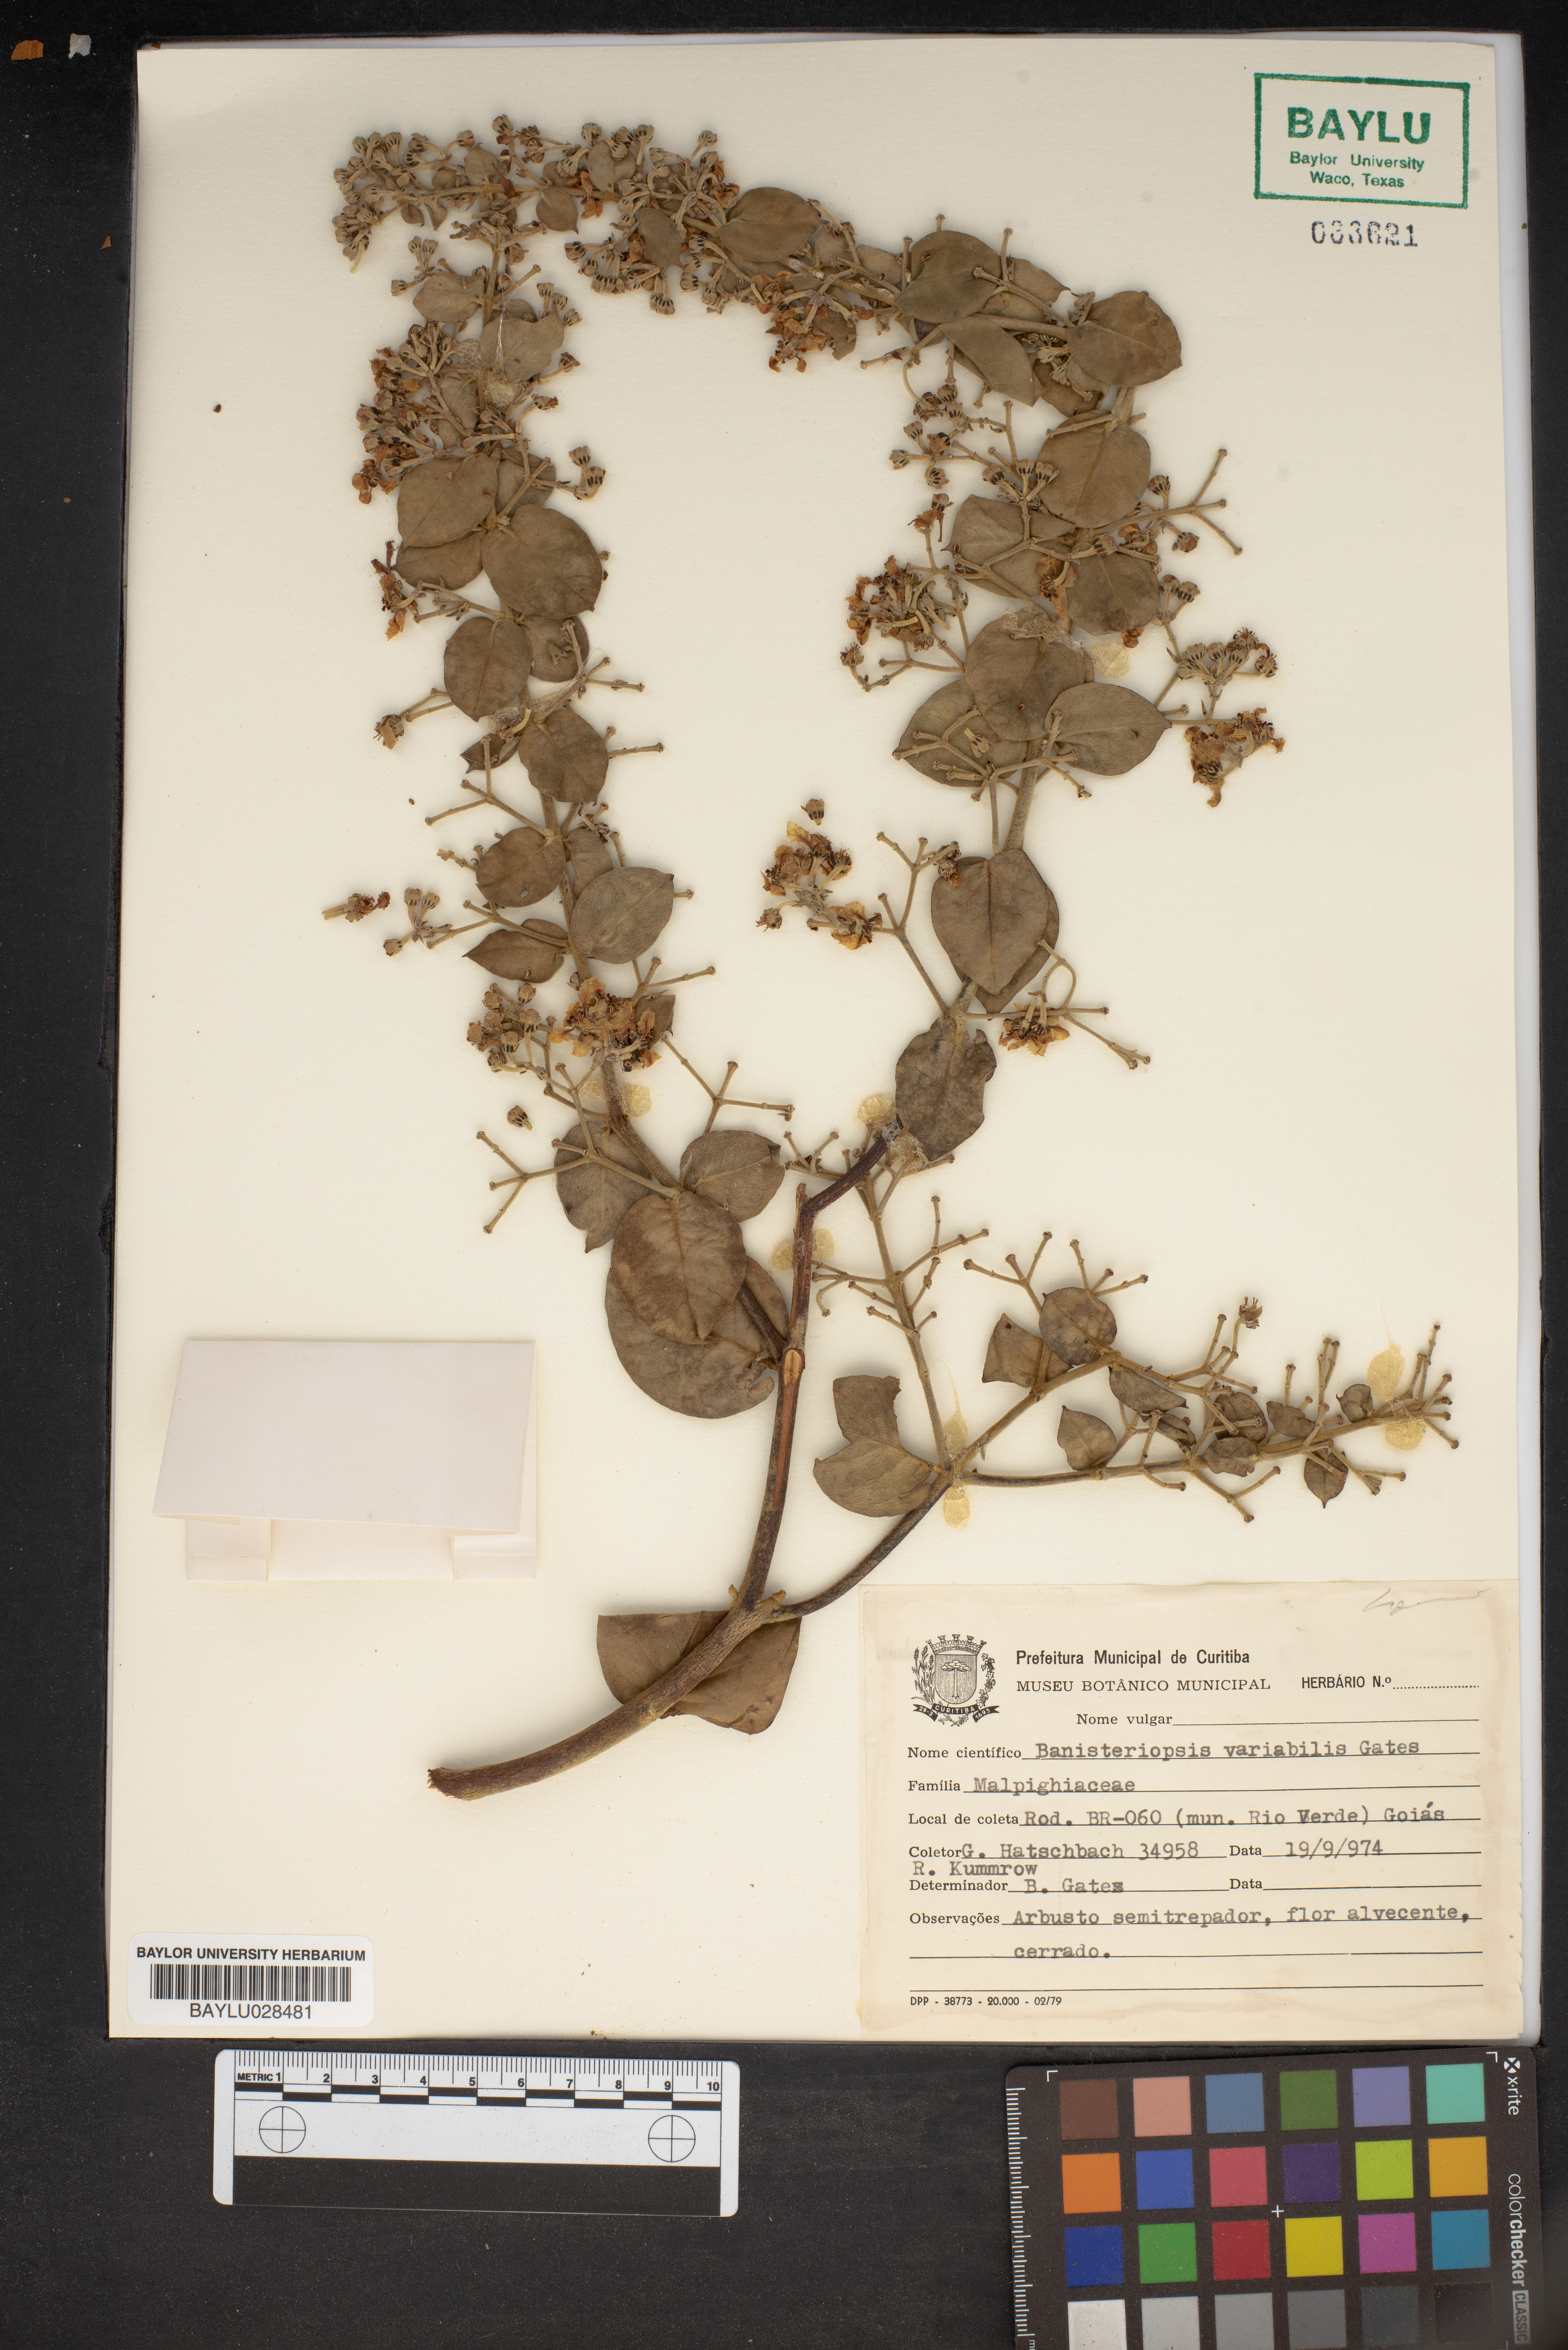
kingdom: Plantae
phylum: Tracheophyta
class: Magnoliopsida
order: Malpighiales
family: Malpighiaceae
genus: Banisteriopsis
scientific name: Banisteriopsis variabilis
